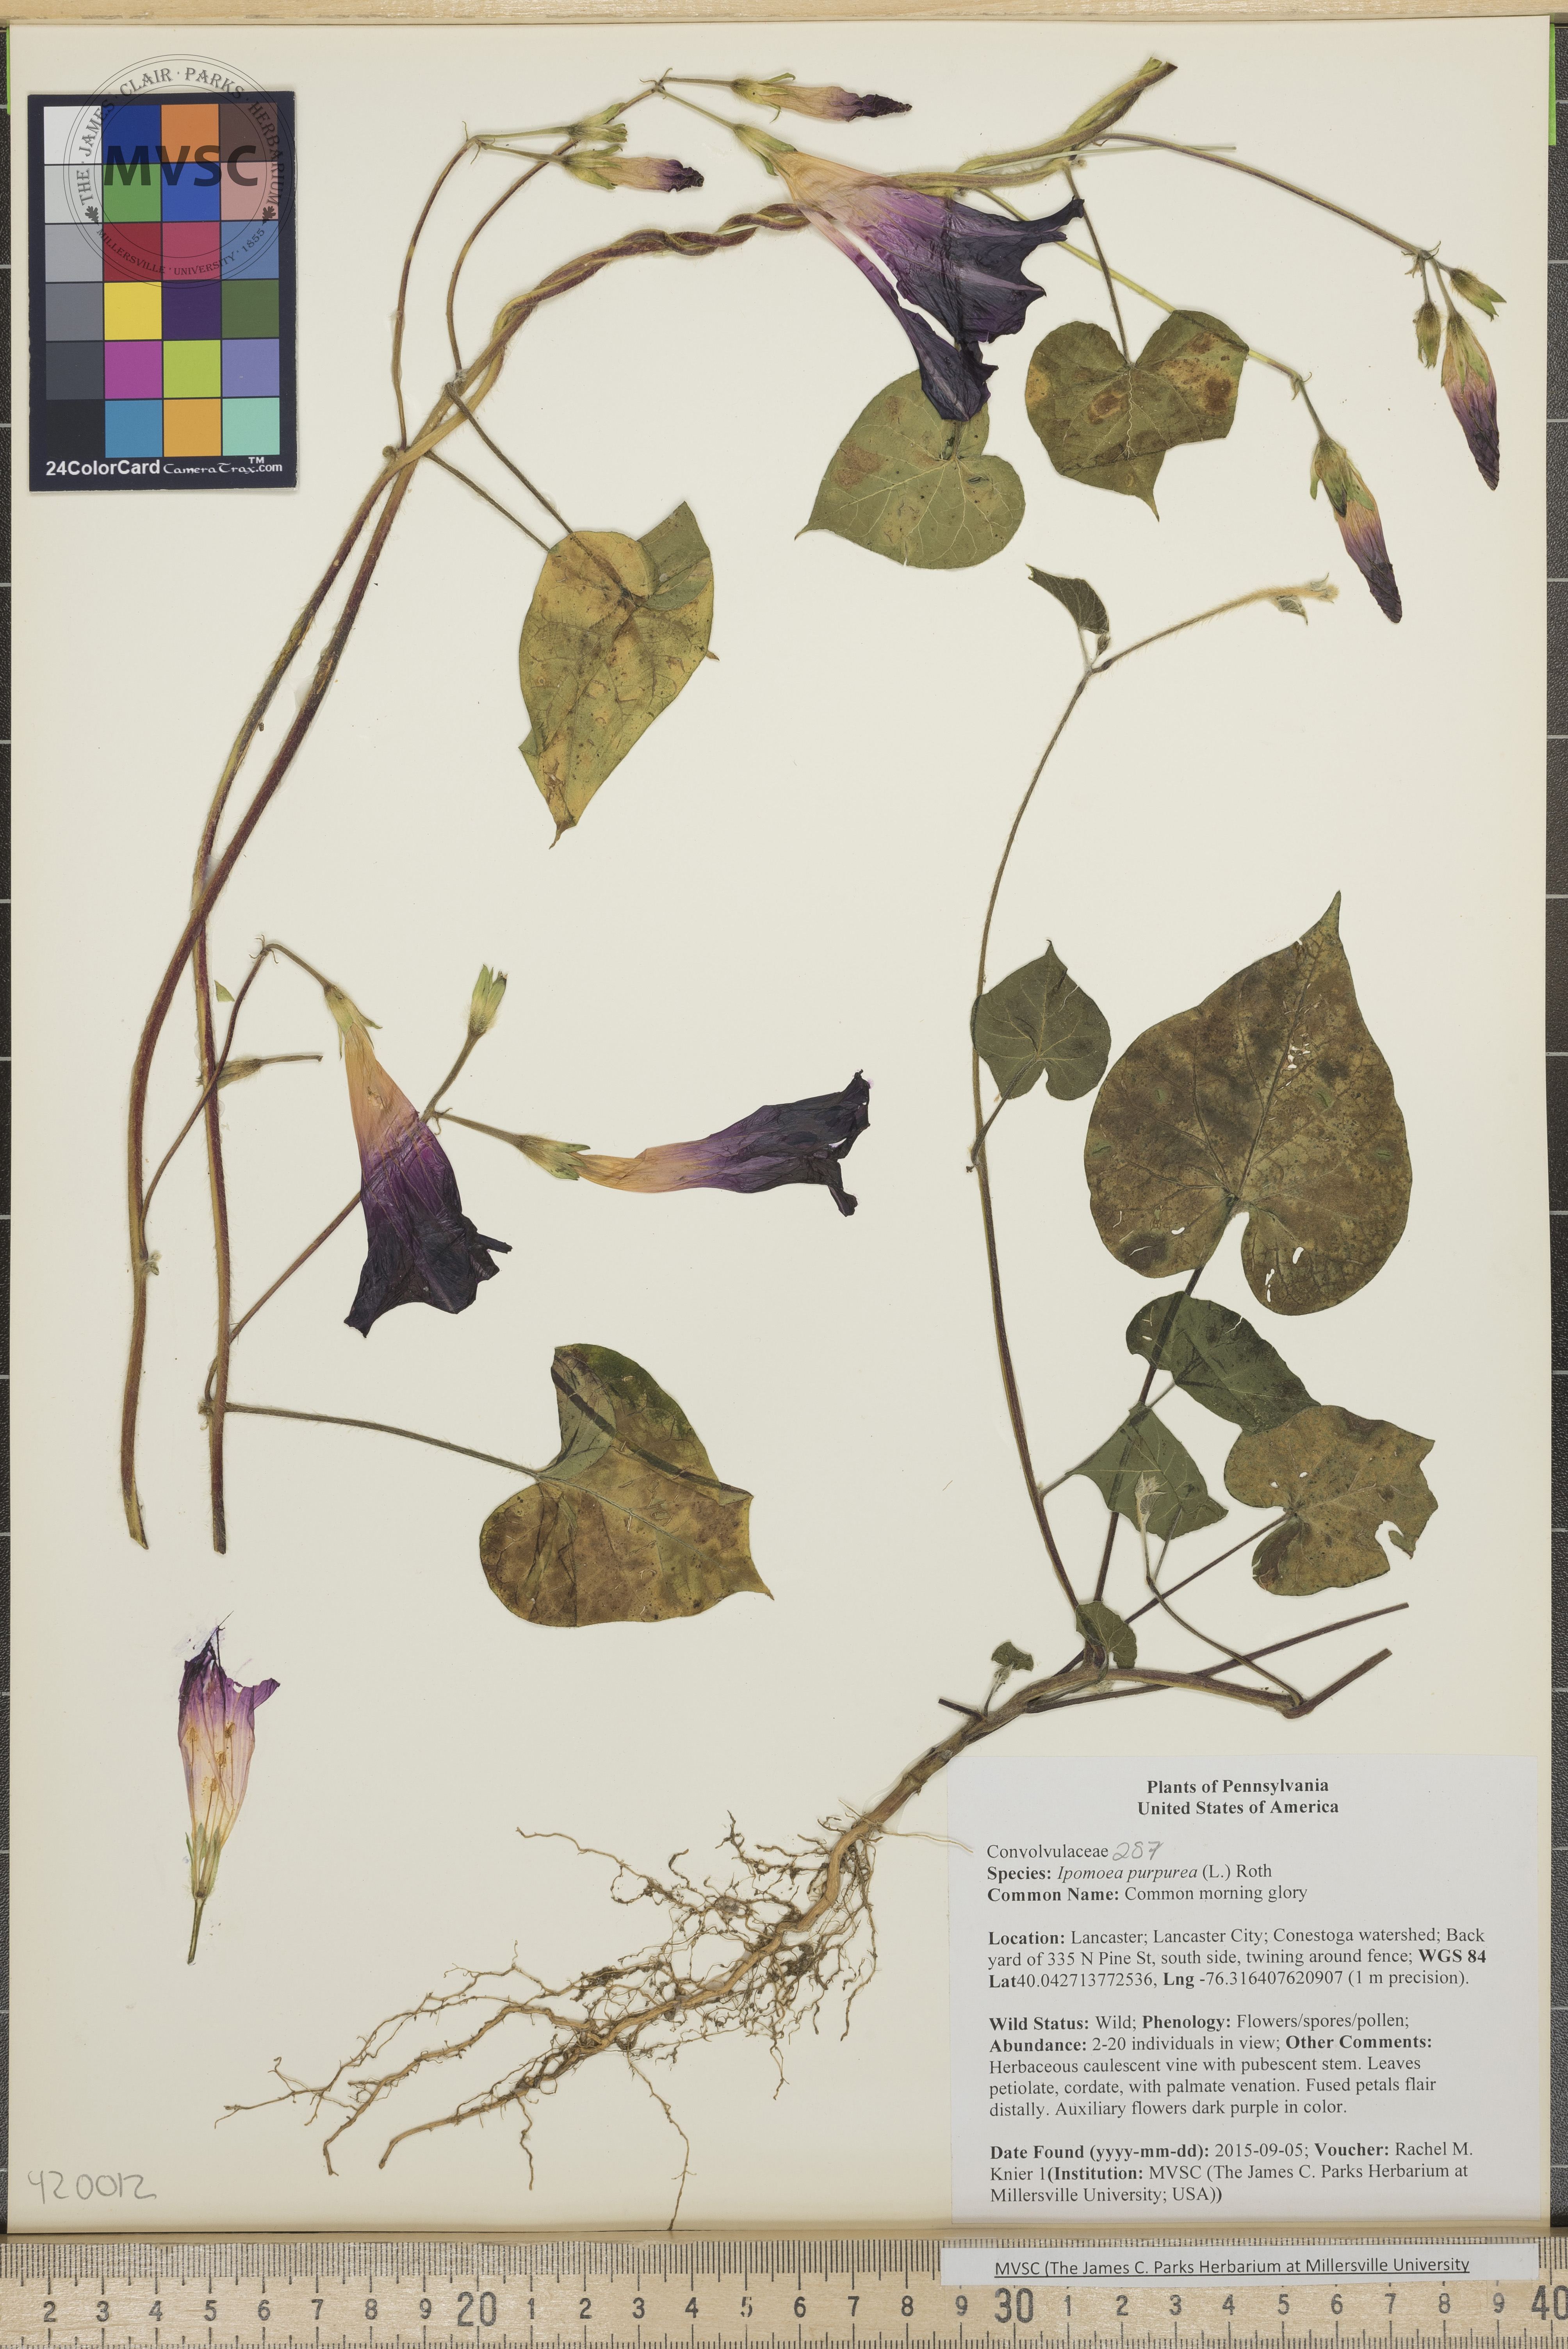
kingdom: Plantae
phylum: Tracheophyta
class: Magnoliopsida
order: Solanales
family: Convolvulaceae
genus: Ipomoea
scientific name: Ipomoea purpurea
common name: Common morning glory
